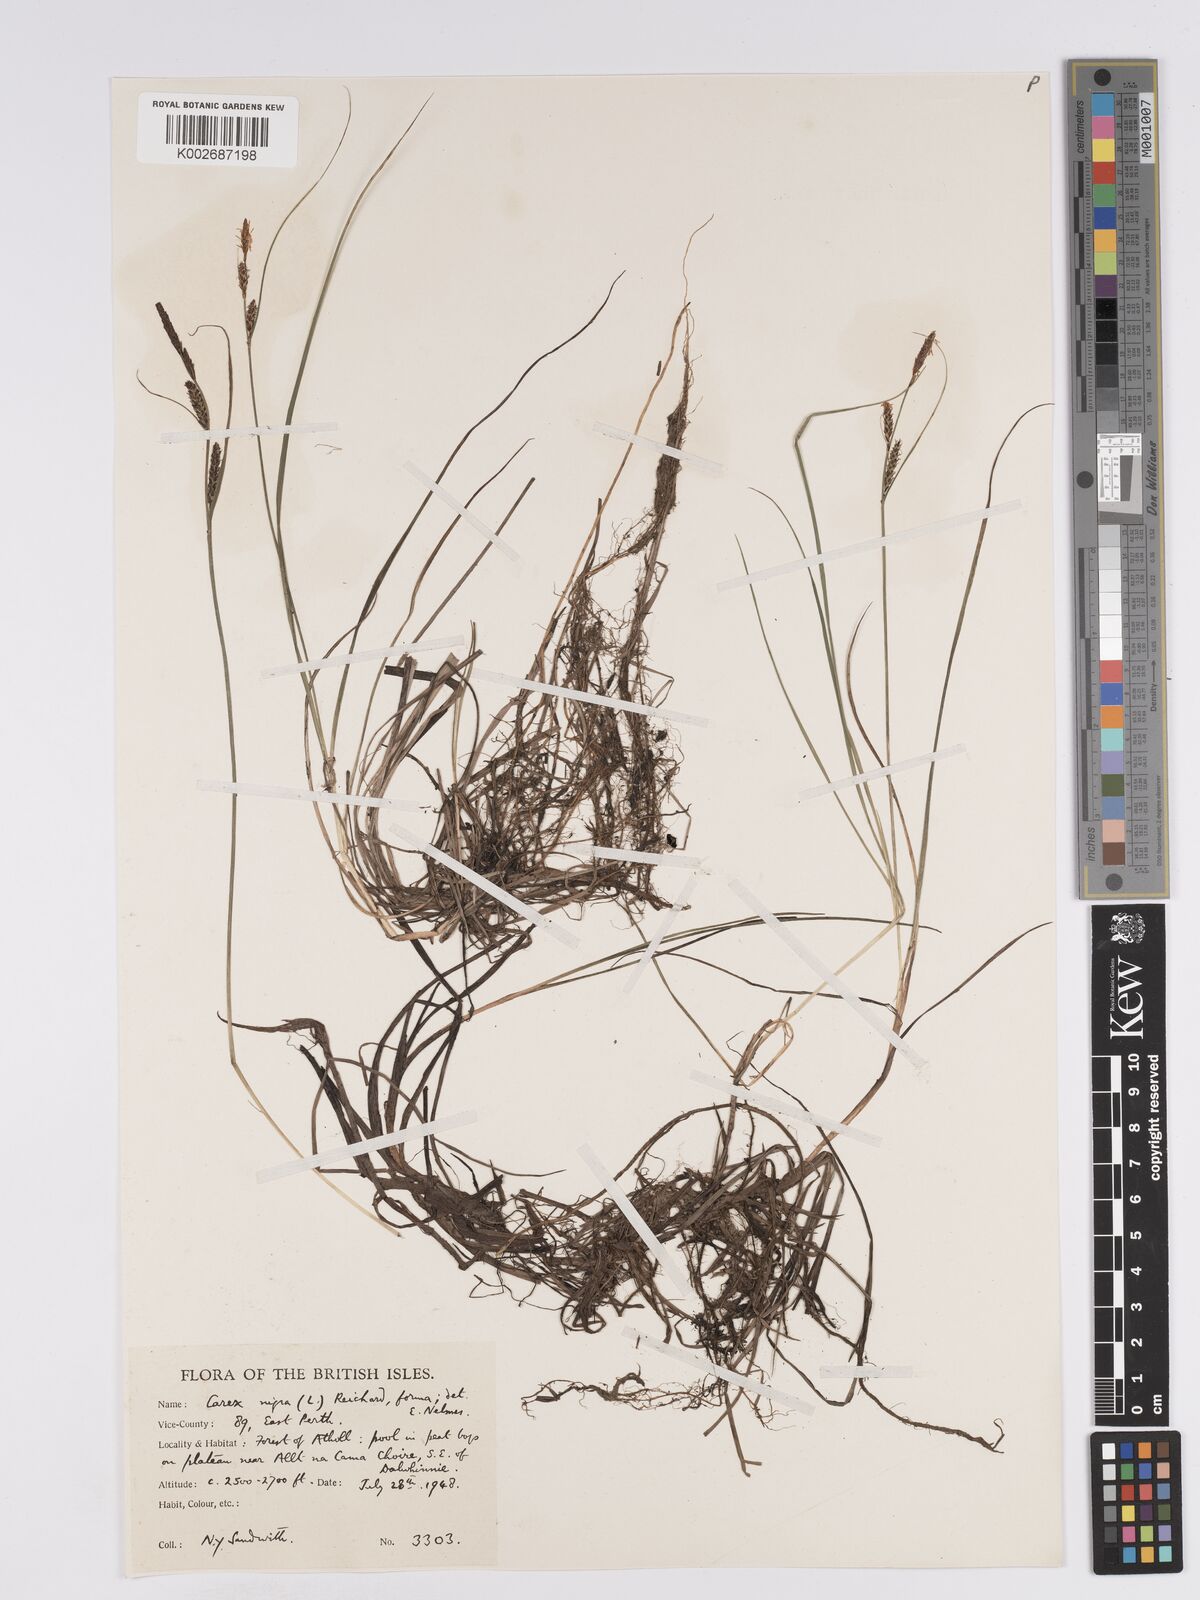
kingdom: Plantae
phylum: Tracheophyta
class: Liliopsida
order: Poales
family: Cyperaceae
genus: Carex
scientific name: Carex nigra
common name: Common sedge
